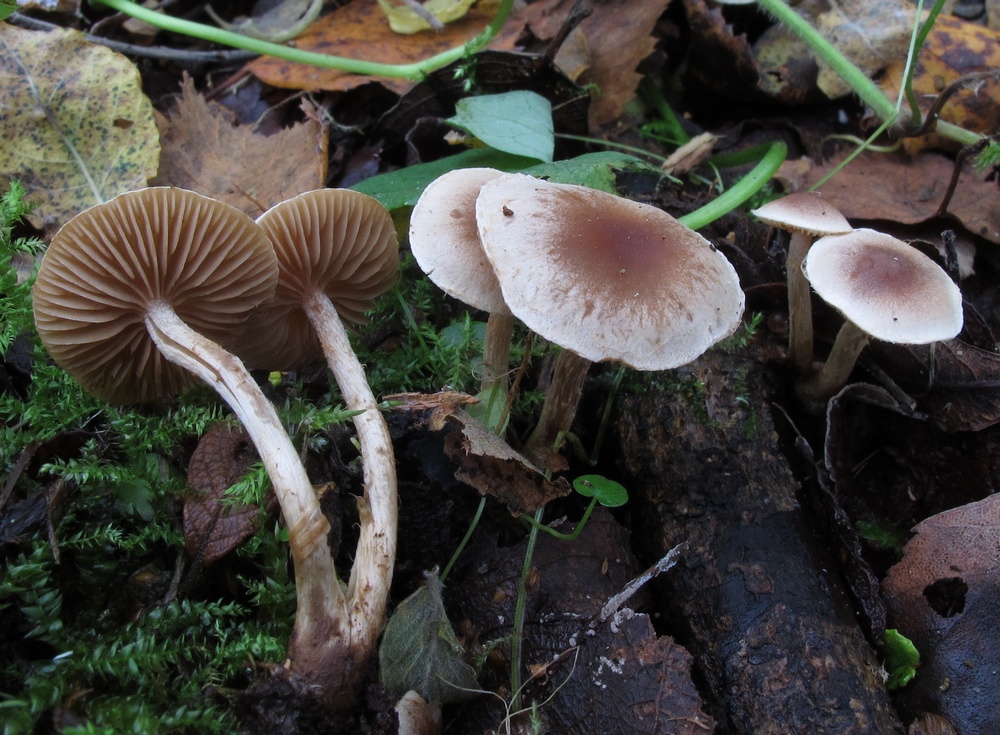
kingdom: Fungi
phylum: Basidiomycota
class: Agaricomycetes
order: Agaricales
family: Hymenogastraceae
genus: Hebeloma
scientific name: Hebeloma nigellum
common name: sortbrun tåreblad
